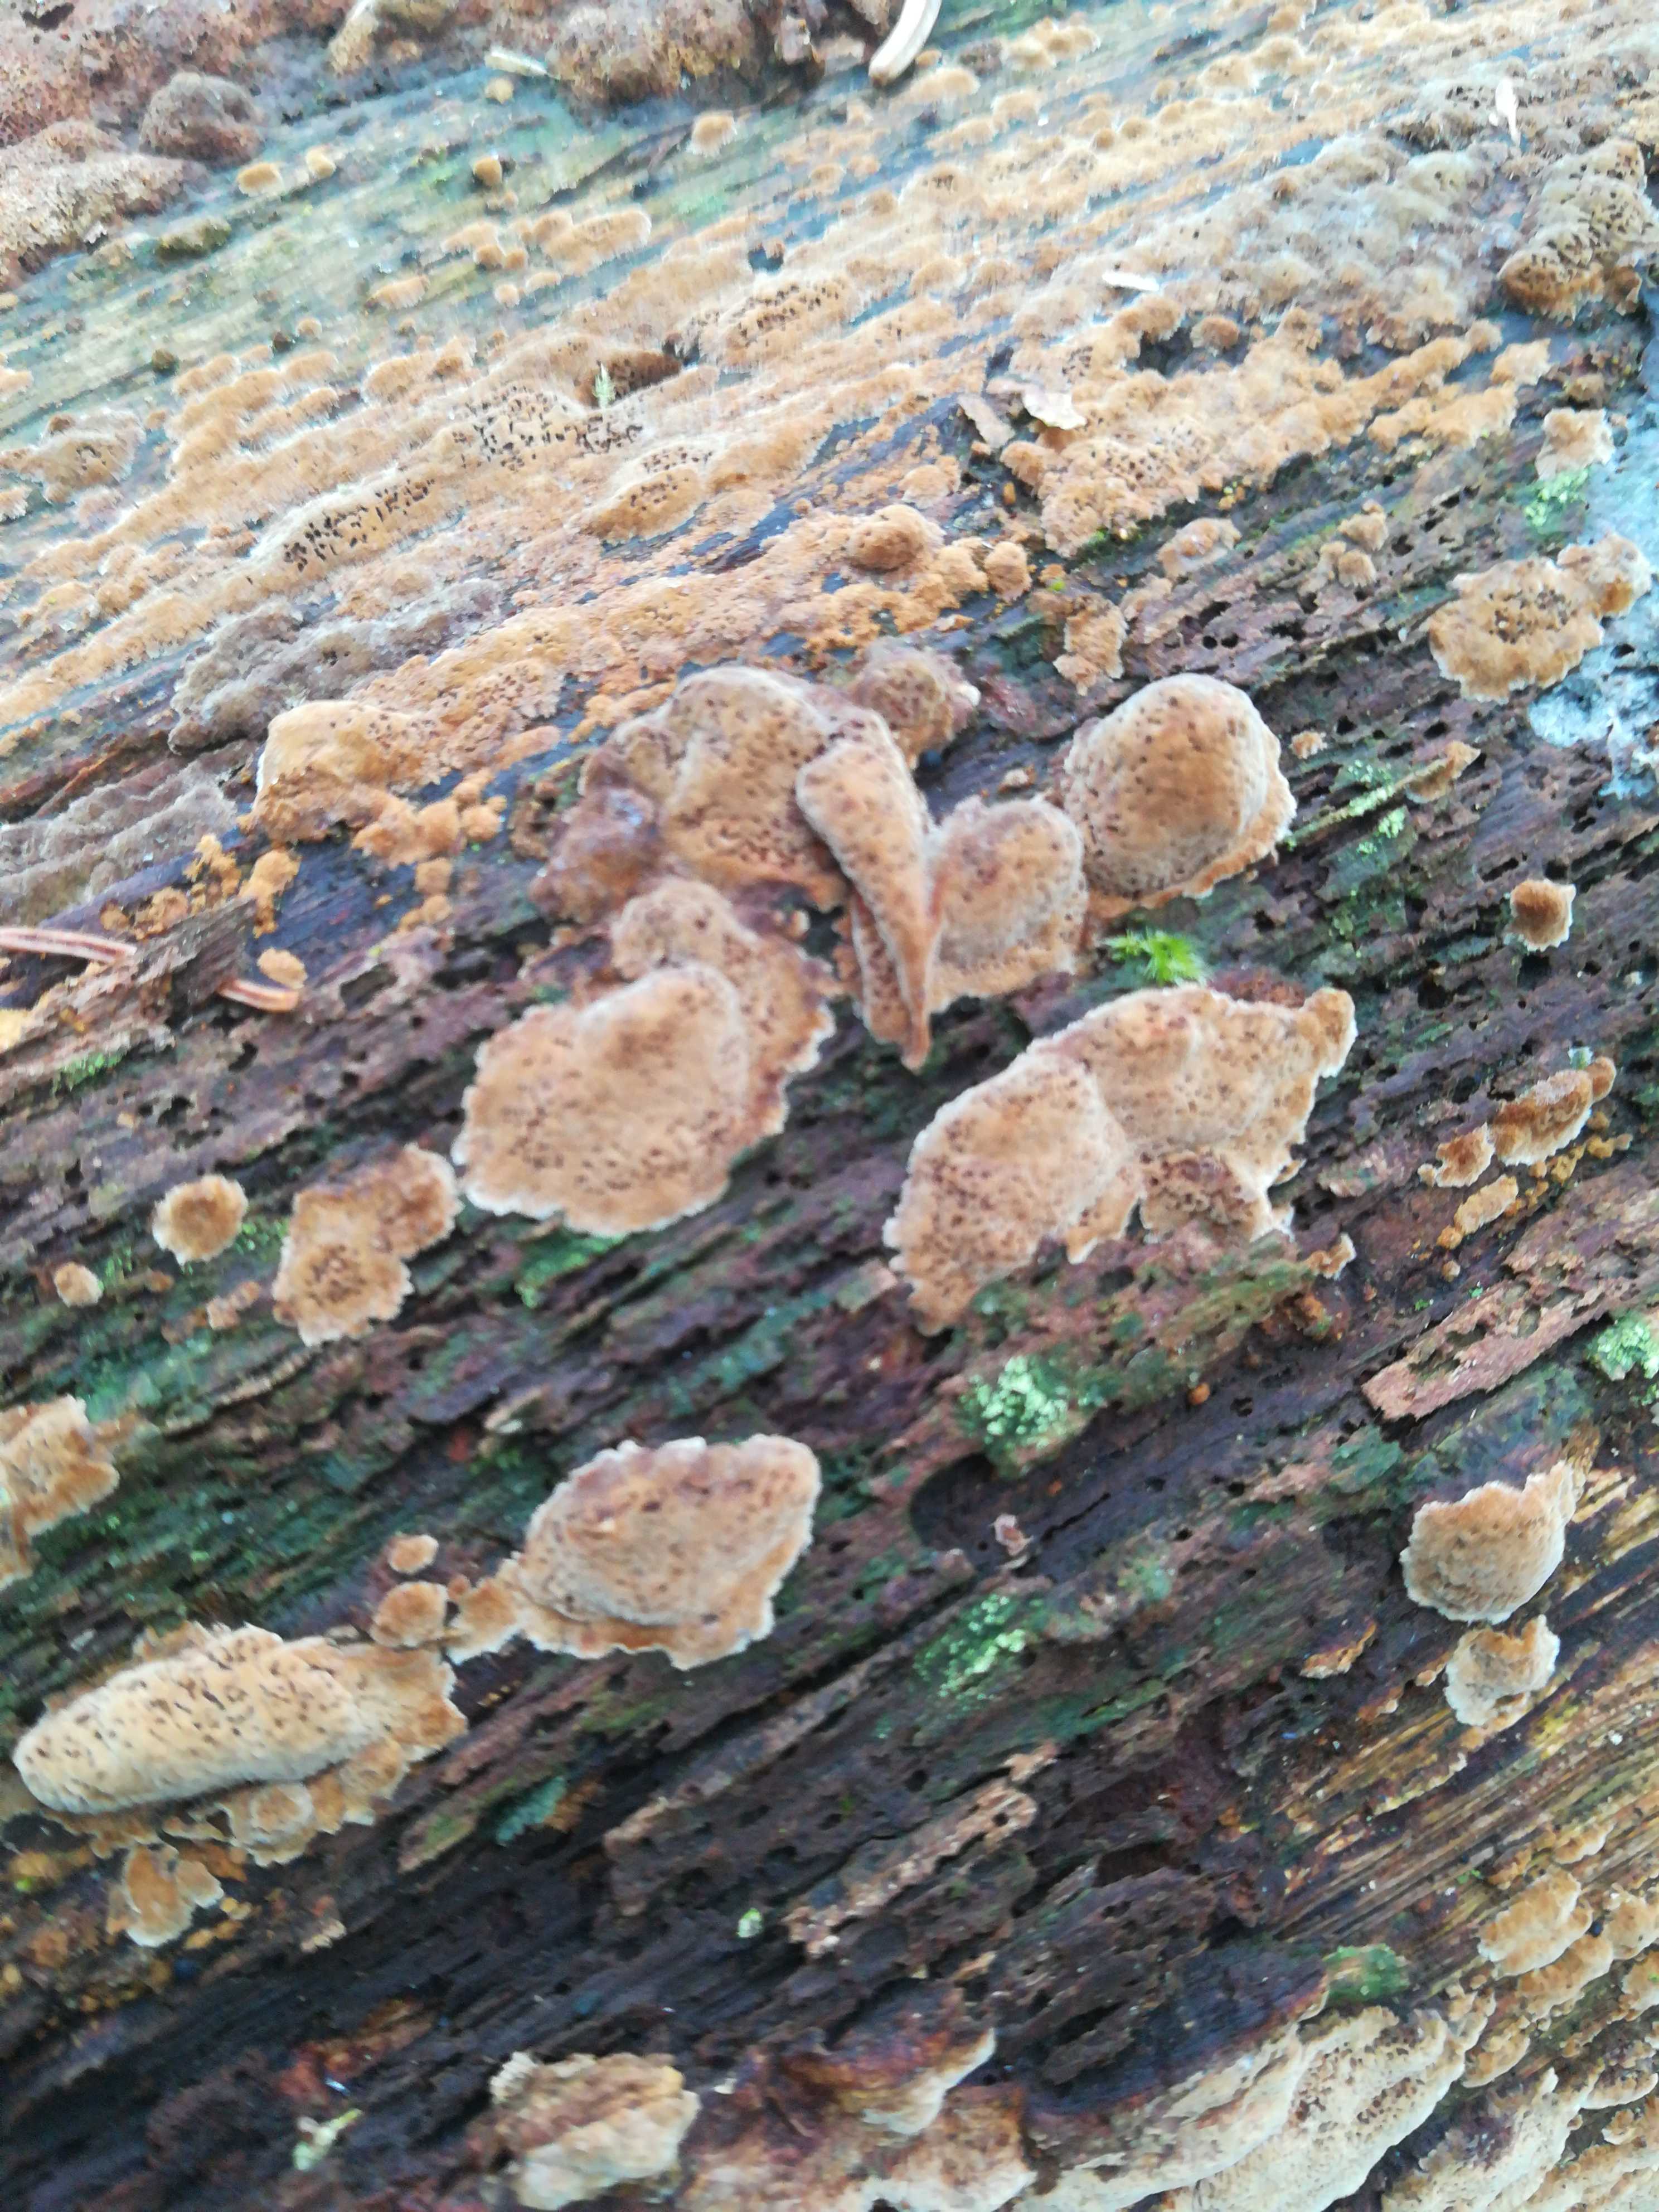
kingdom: Fungi
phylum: Basidiomycota
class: Agaricomycetes
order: Hymenochaetales
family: Hymenochaetaceae
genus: Fuscoporia
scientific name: Fuscoporia ferrea
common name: skorpe-ildporesvamp
